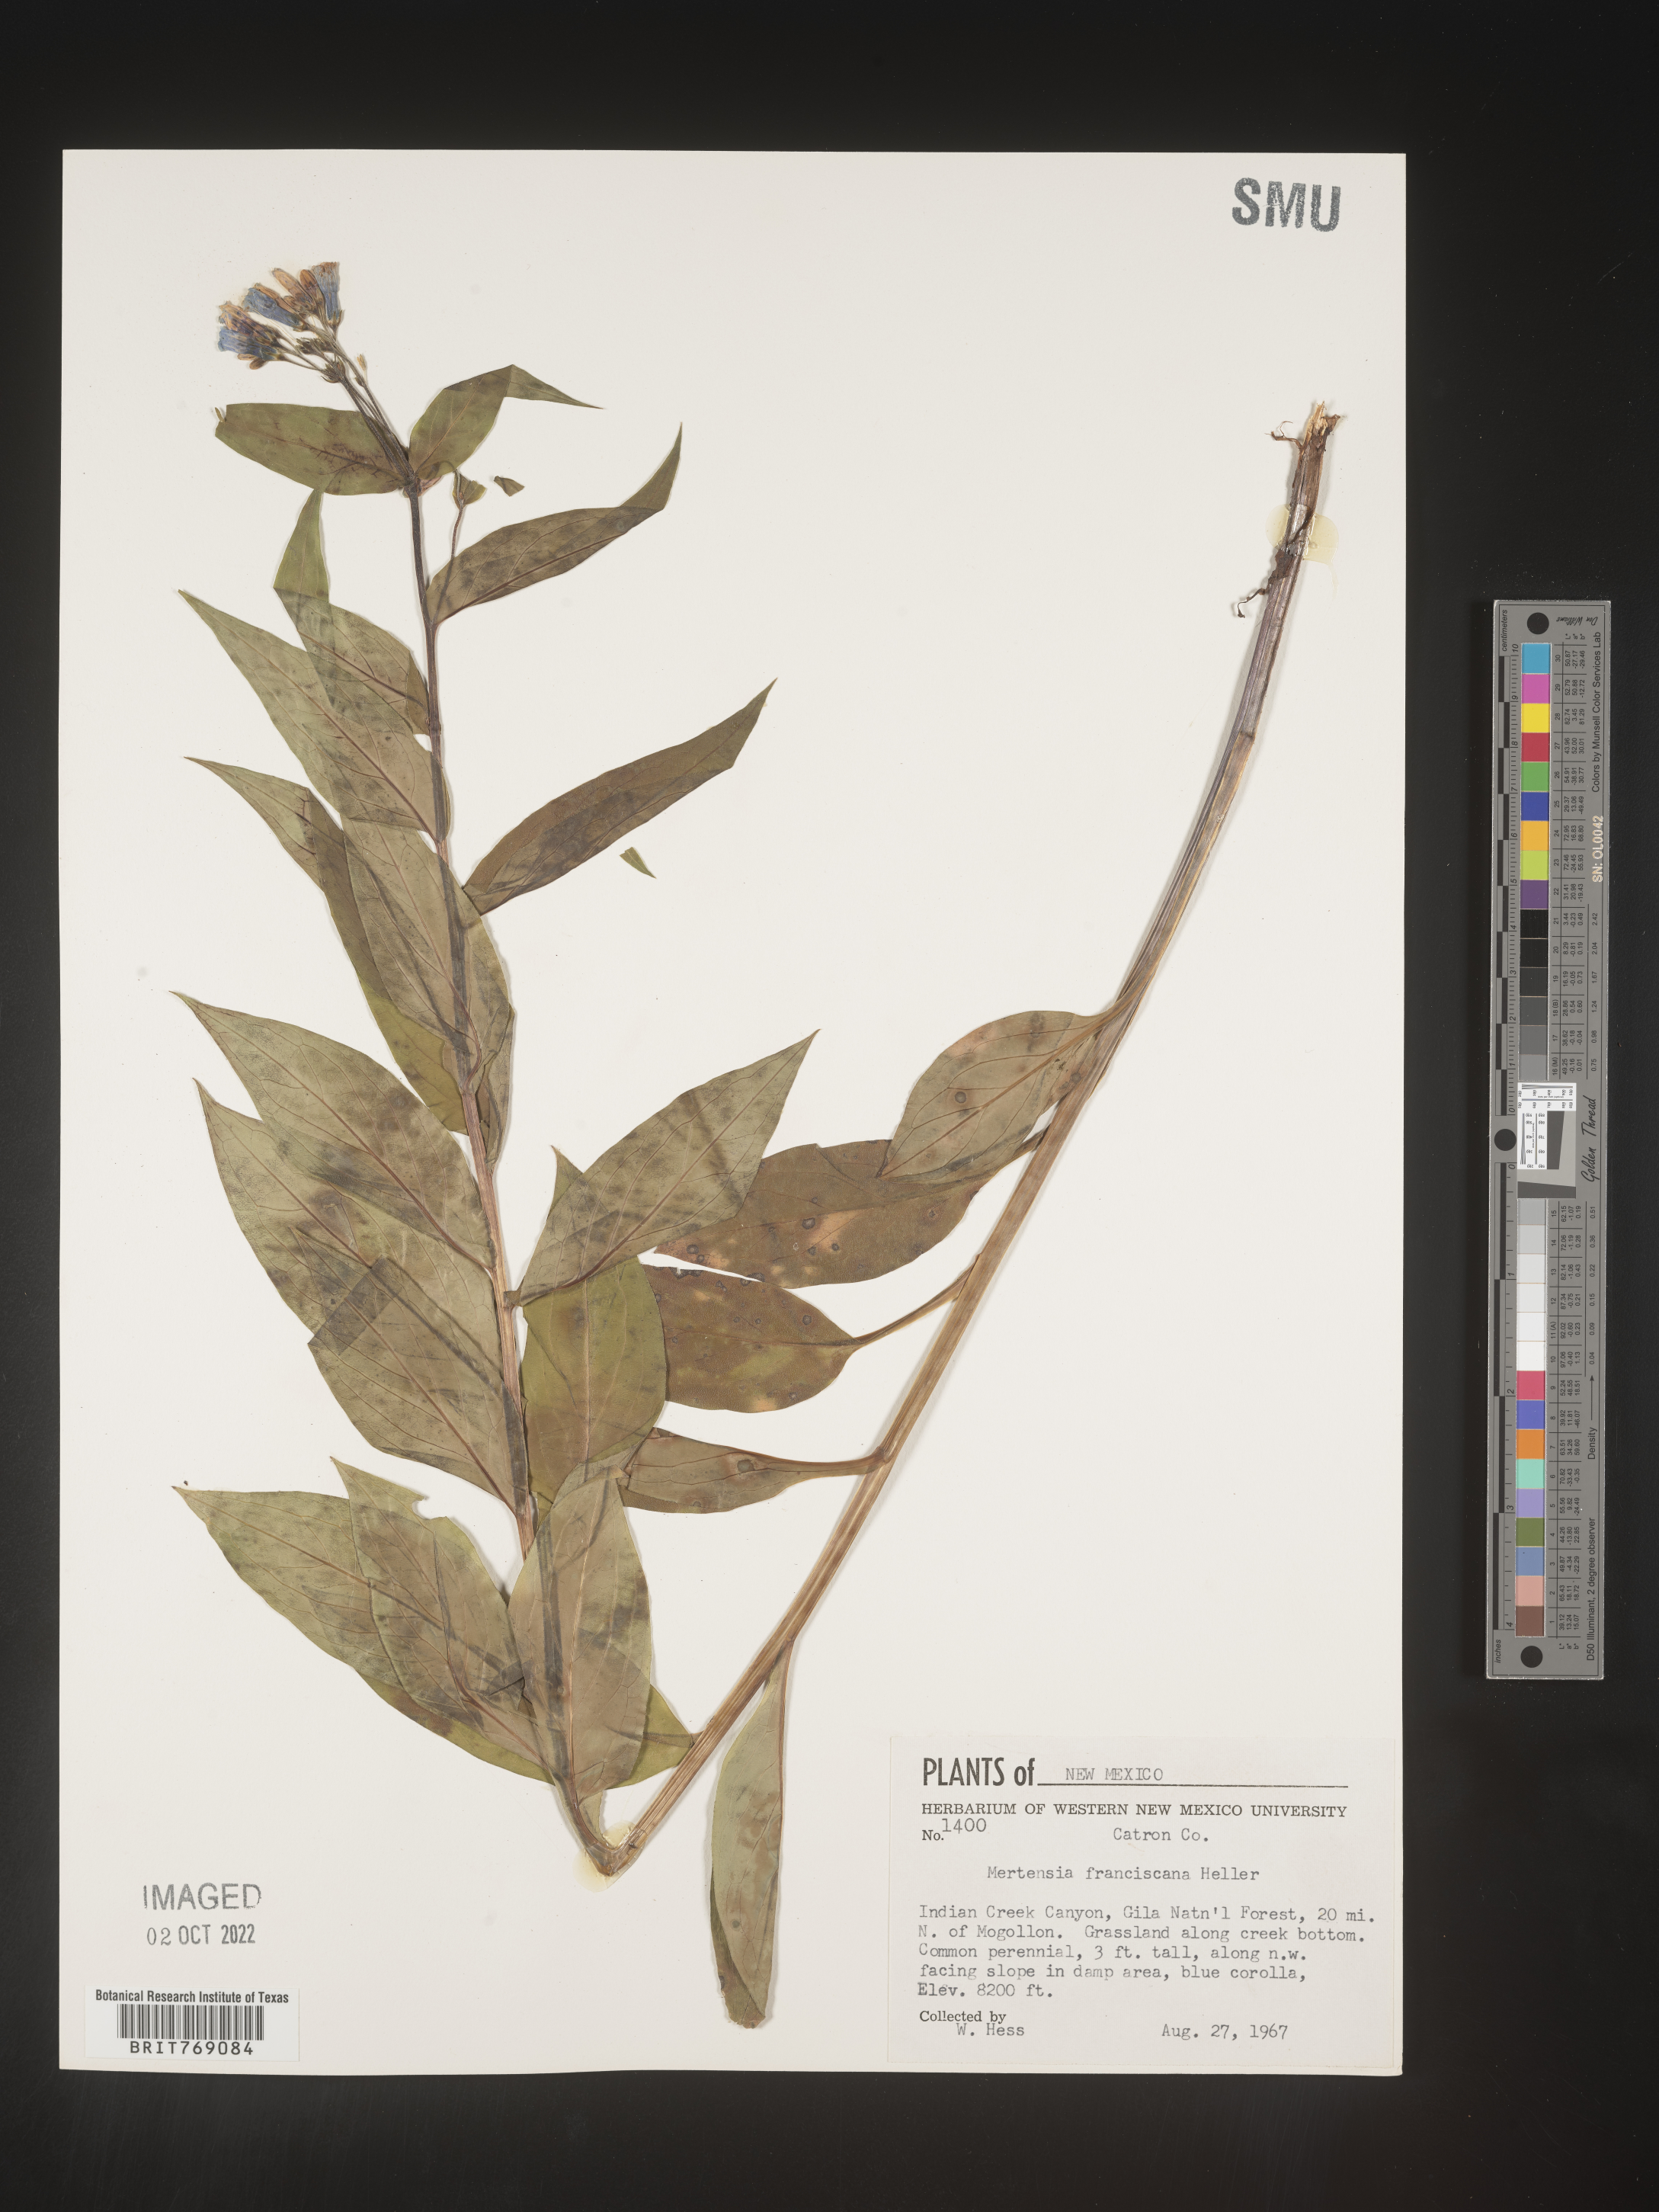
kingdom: Plantae
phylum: Tracheophyta
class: Magnoliopsida
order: Boraginales
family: Boraginaceae
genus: Mertensia
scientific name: Mertensia
